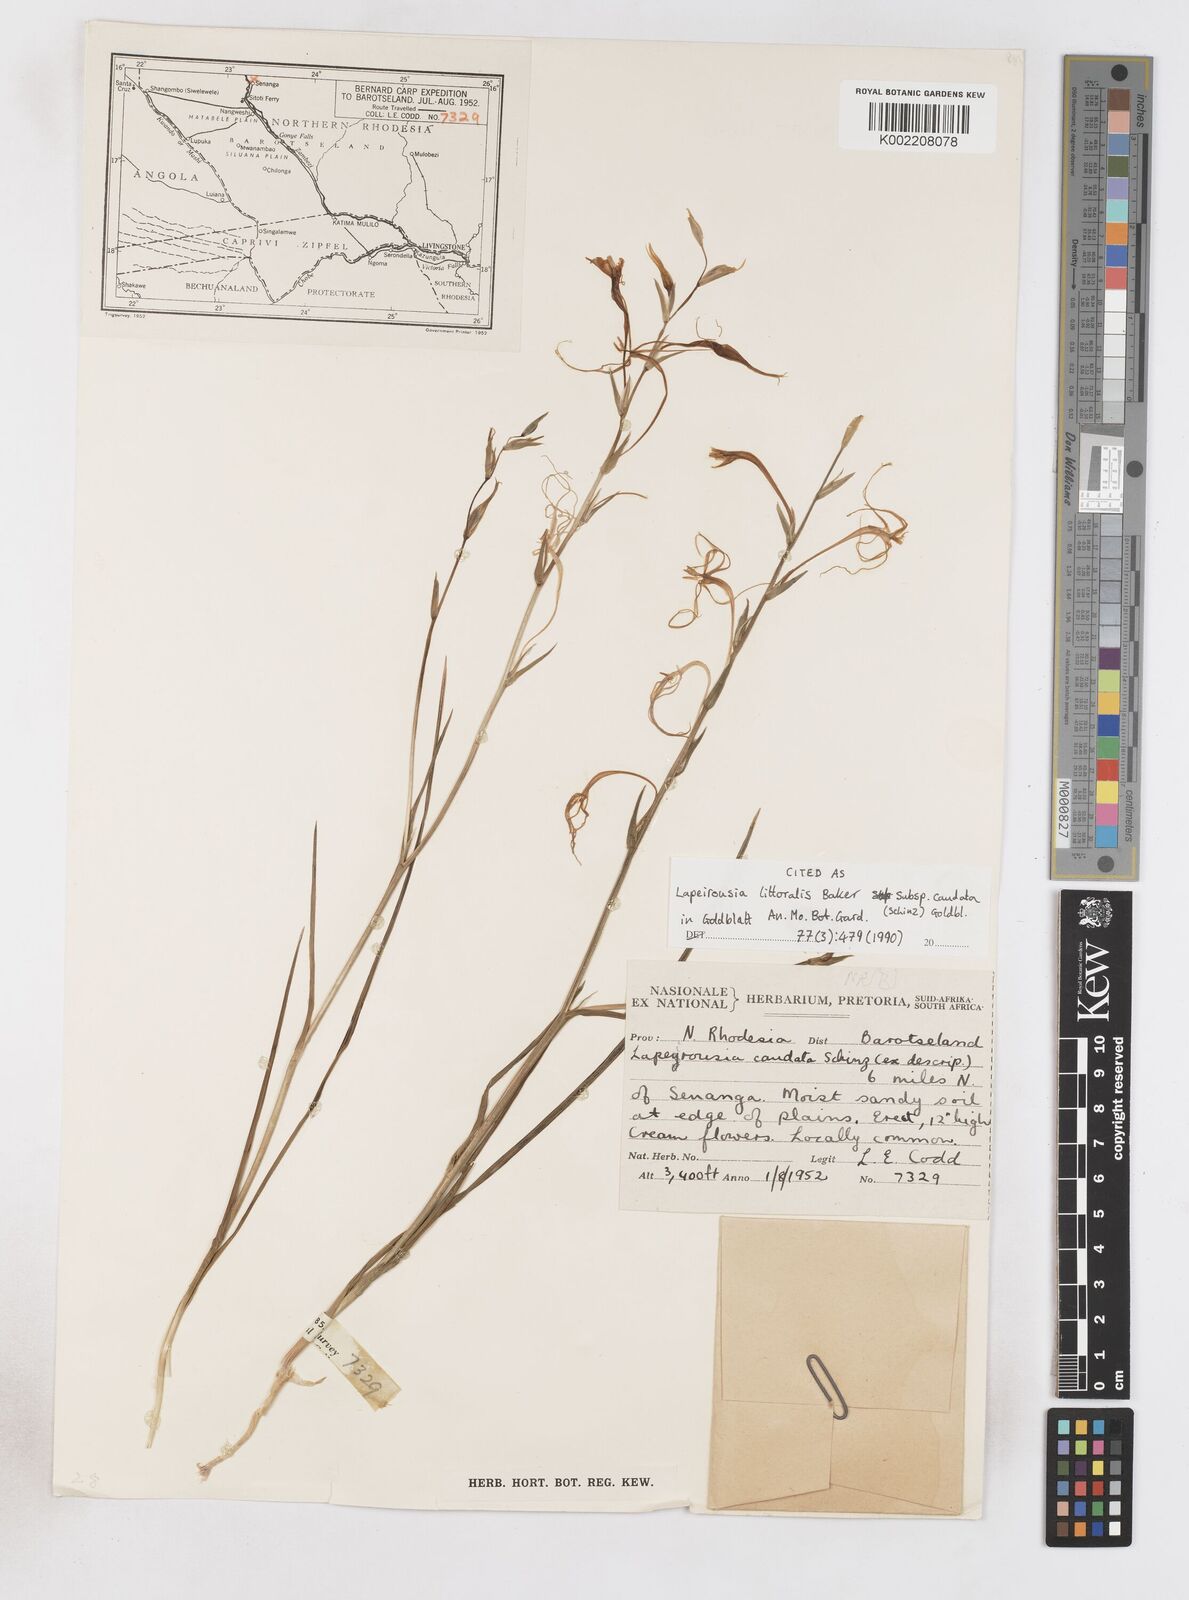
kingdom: Plantae
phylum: Tracheophyta
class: Liliopsida
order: Asparagales
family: Iridaceae
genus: Lapeirousia
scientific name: Lapeirousia caudata
